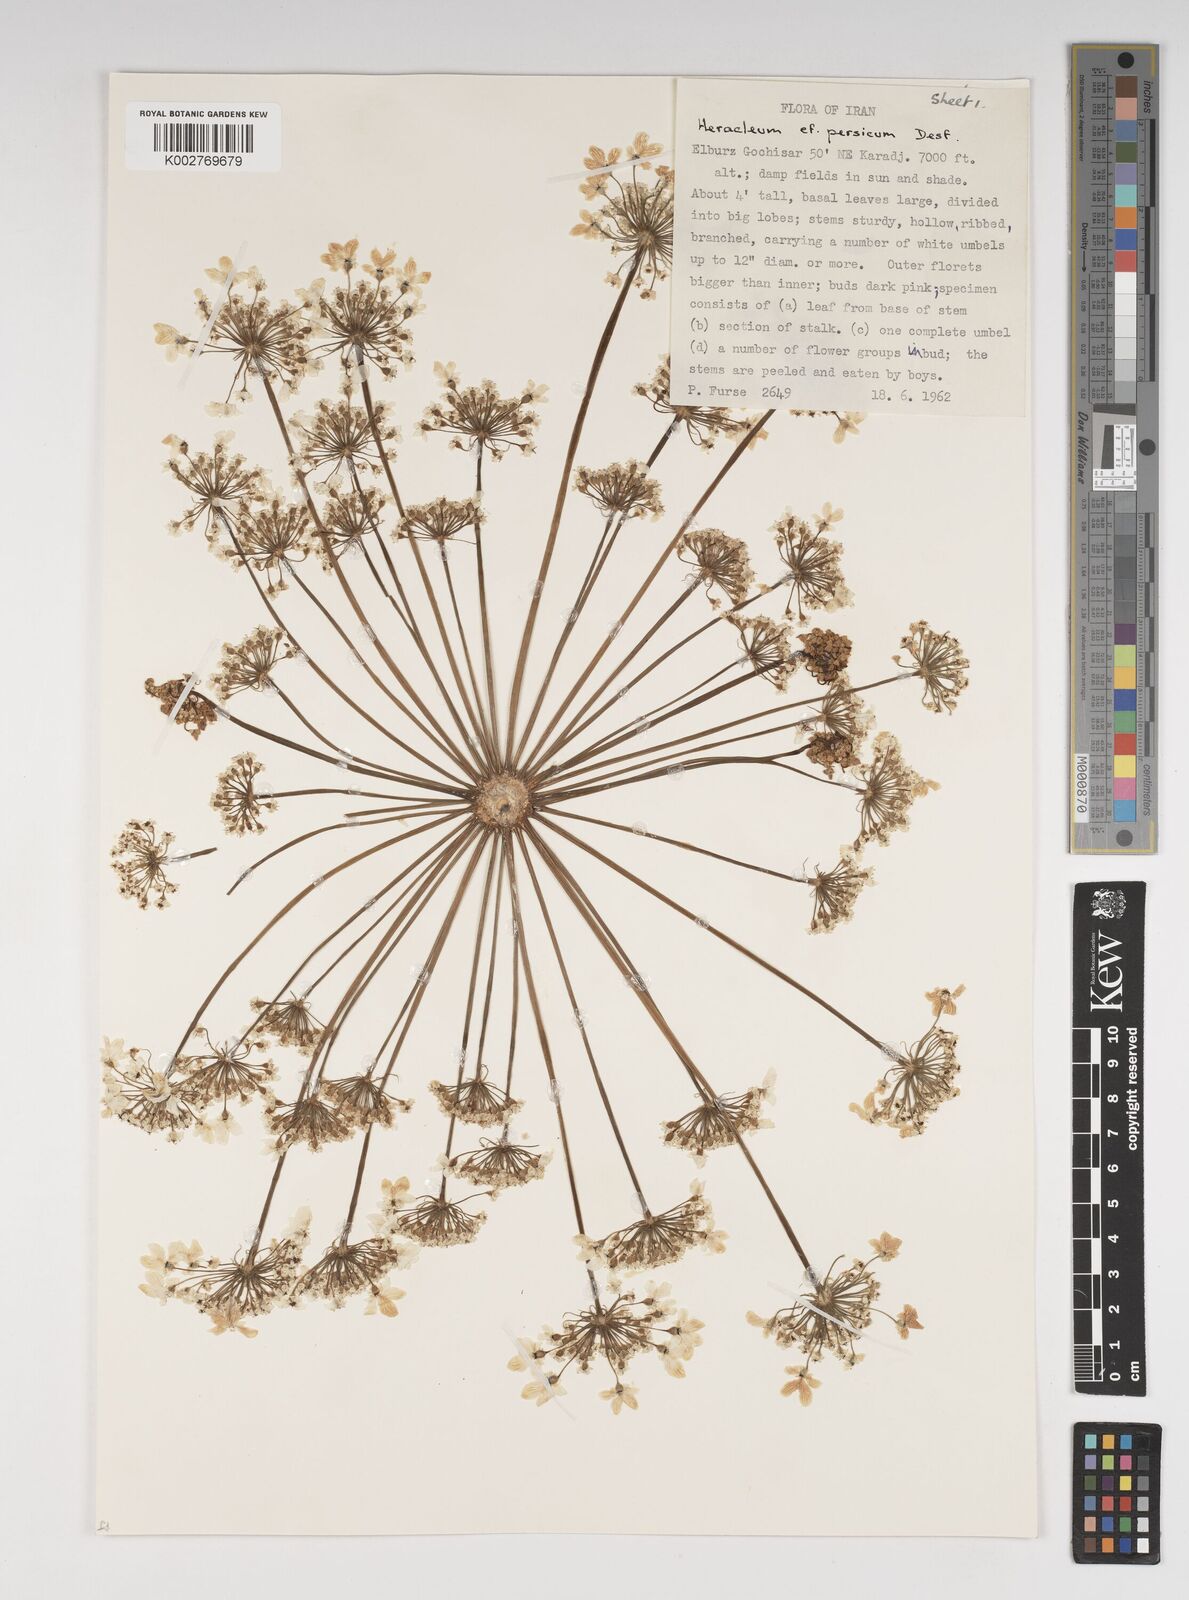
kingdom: Plantae
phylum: Tracheophyta
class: Magnoliopsida
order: Apiales
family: Apiaceae
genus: Heracleum
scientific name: Heracleum persicum
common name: Persian hogweed
